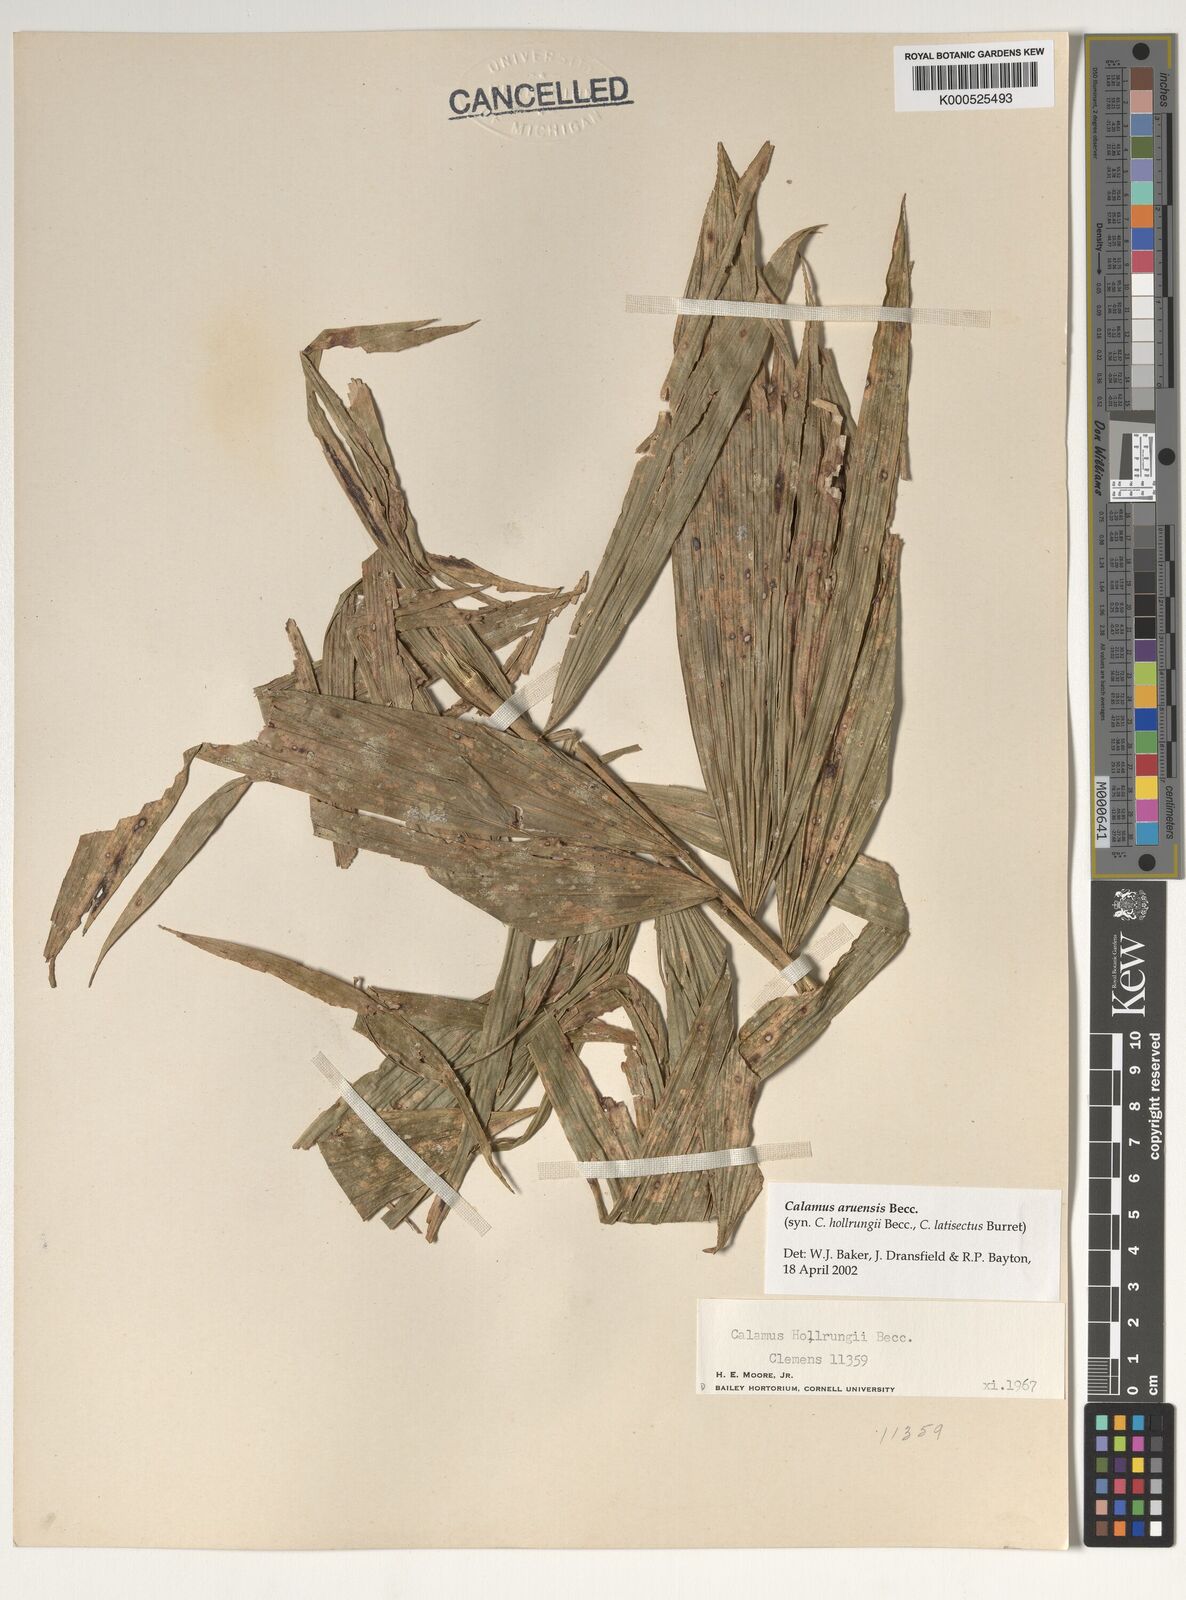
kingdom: Plantae
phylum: Tracheophyta
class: Liliopsida
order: Arecales
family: Arecaceae
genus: Calamus
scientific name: Calamus aruensis
